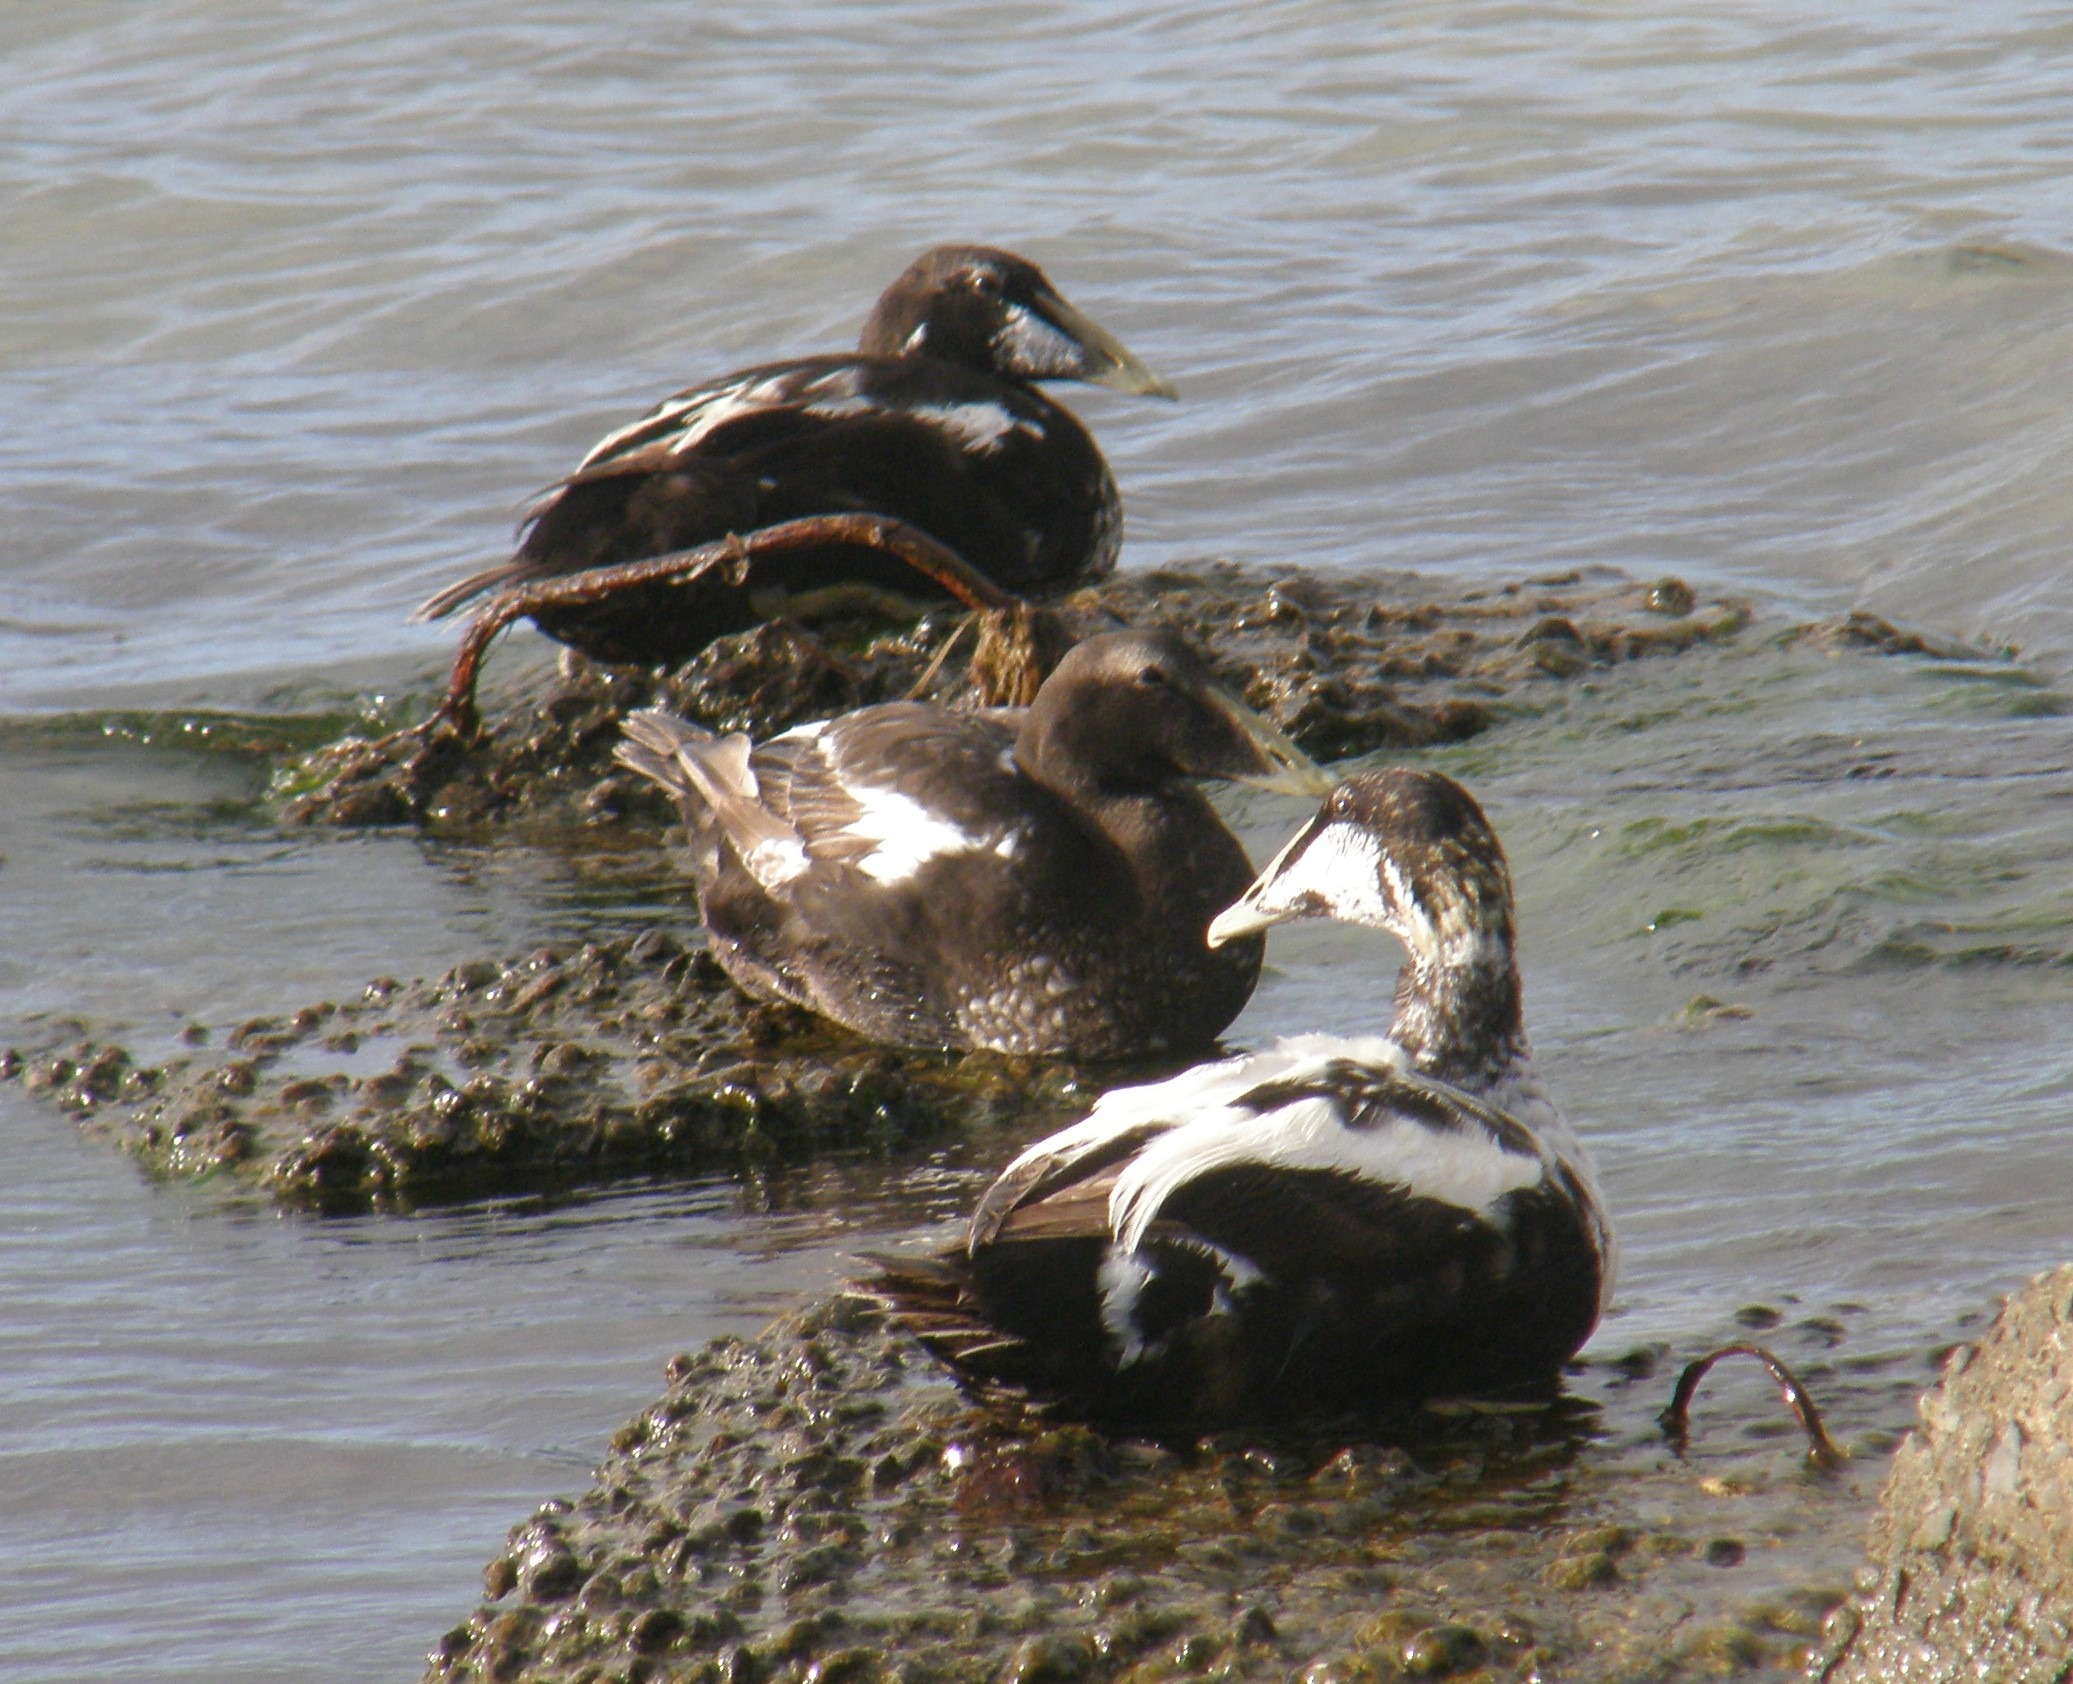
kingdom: Animalia
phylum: Chordata
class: Aves
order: Anseriformes
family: Anatidae
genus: Somateria
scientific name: Somateria mollissima
